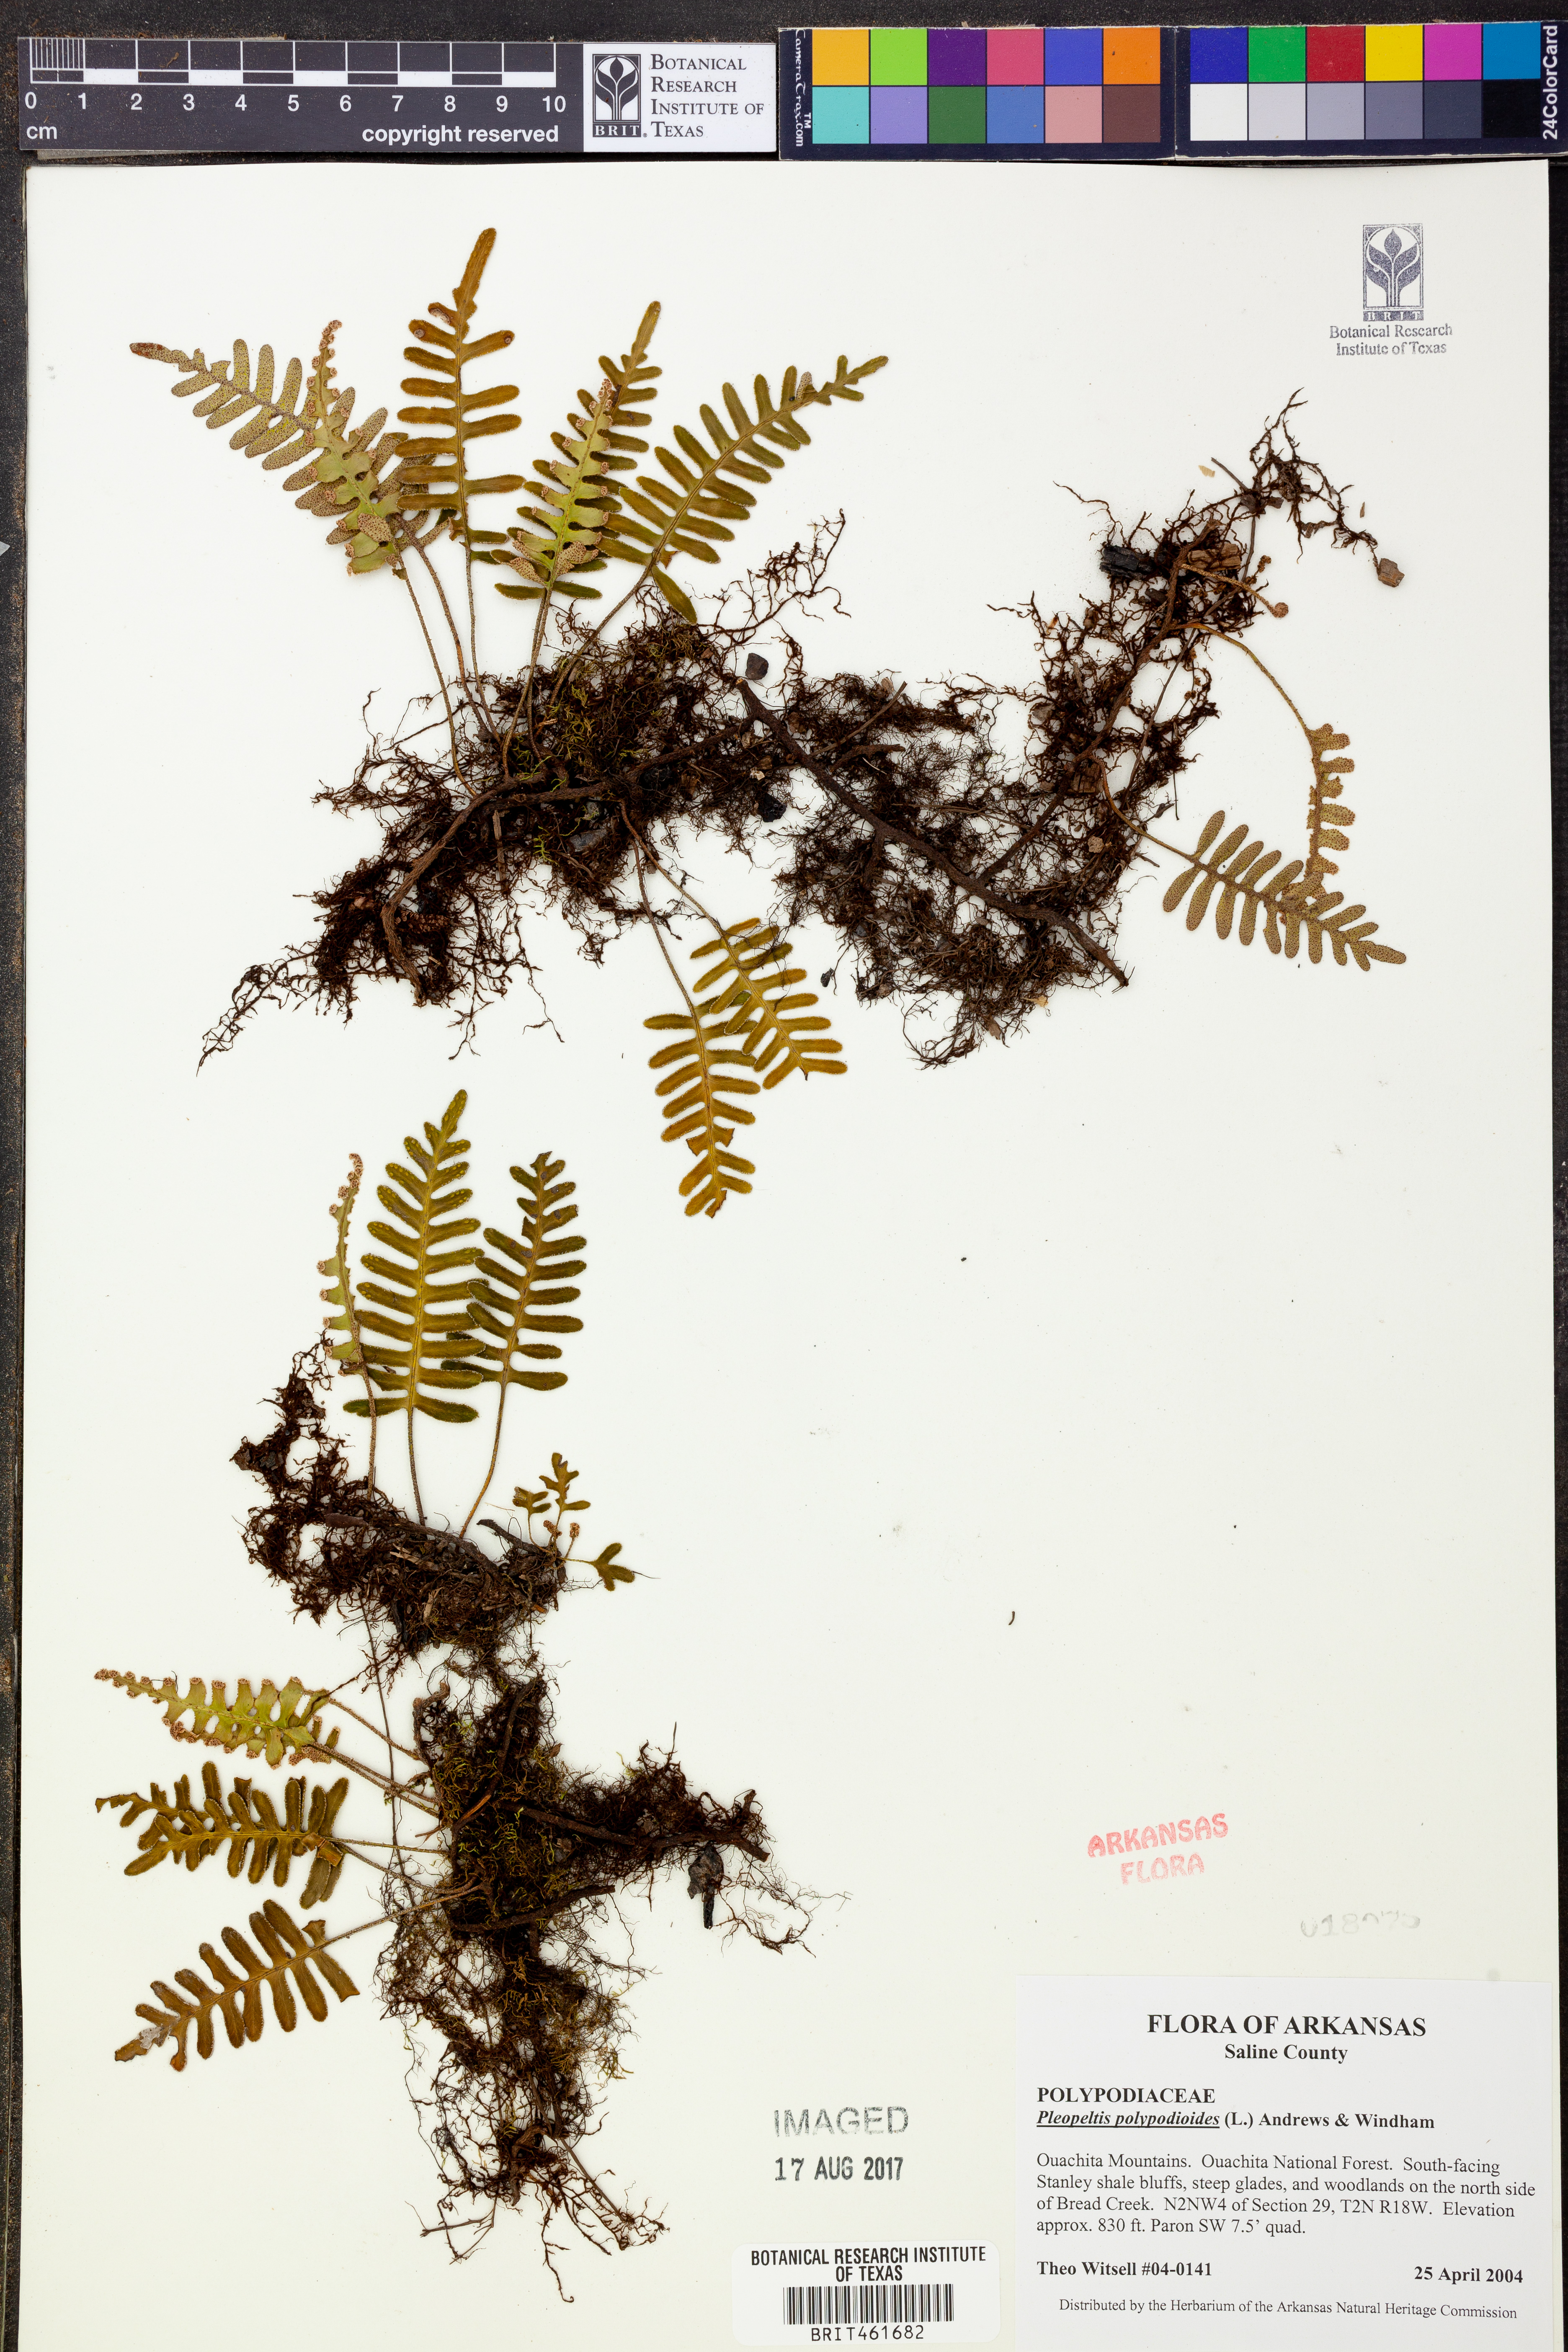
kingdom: Plantae
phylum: Tracheophyta
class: Polypodiopsida
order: Polypodiales
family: Polypodiaceae
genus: Pleopeltis
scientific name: Pleopeltis polypodioides
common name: Resurrection fern
